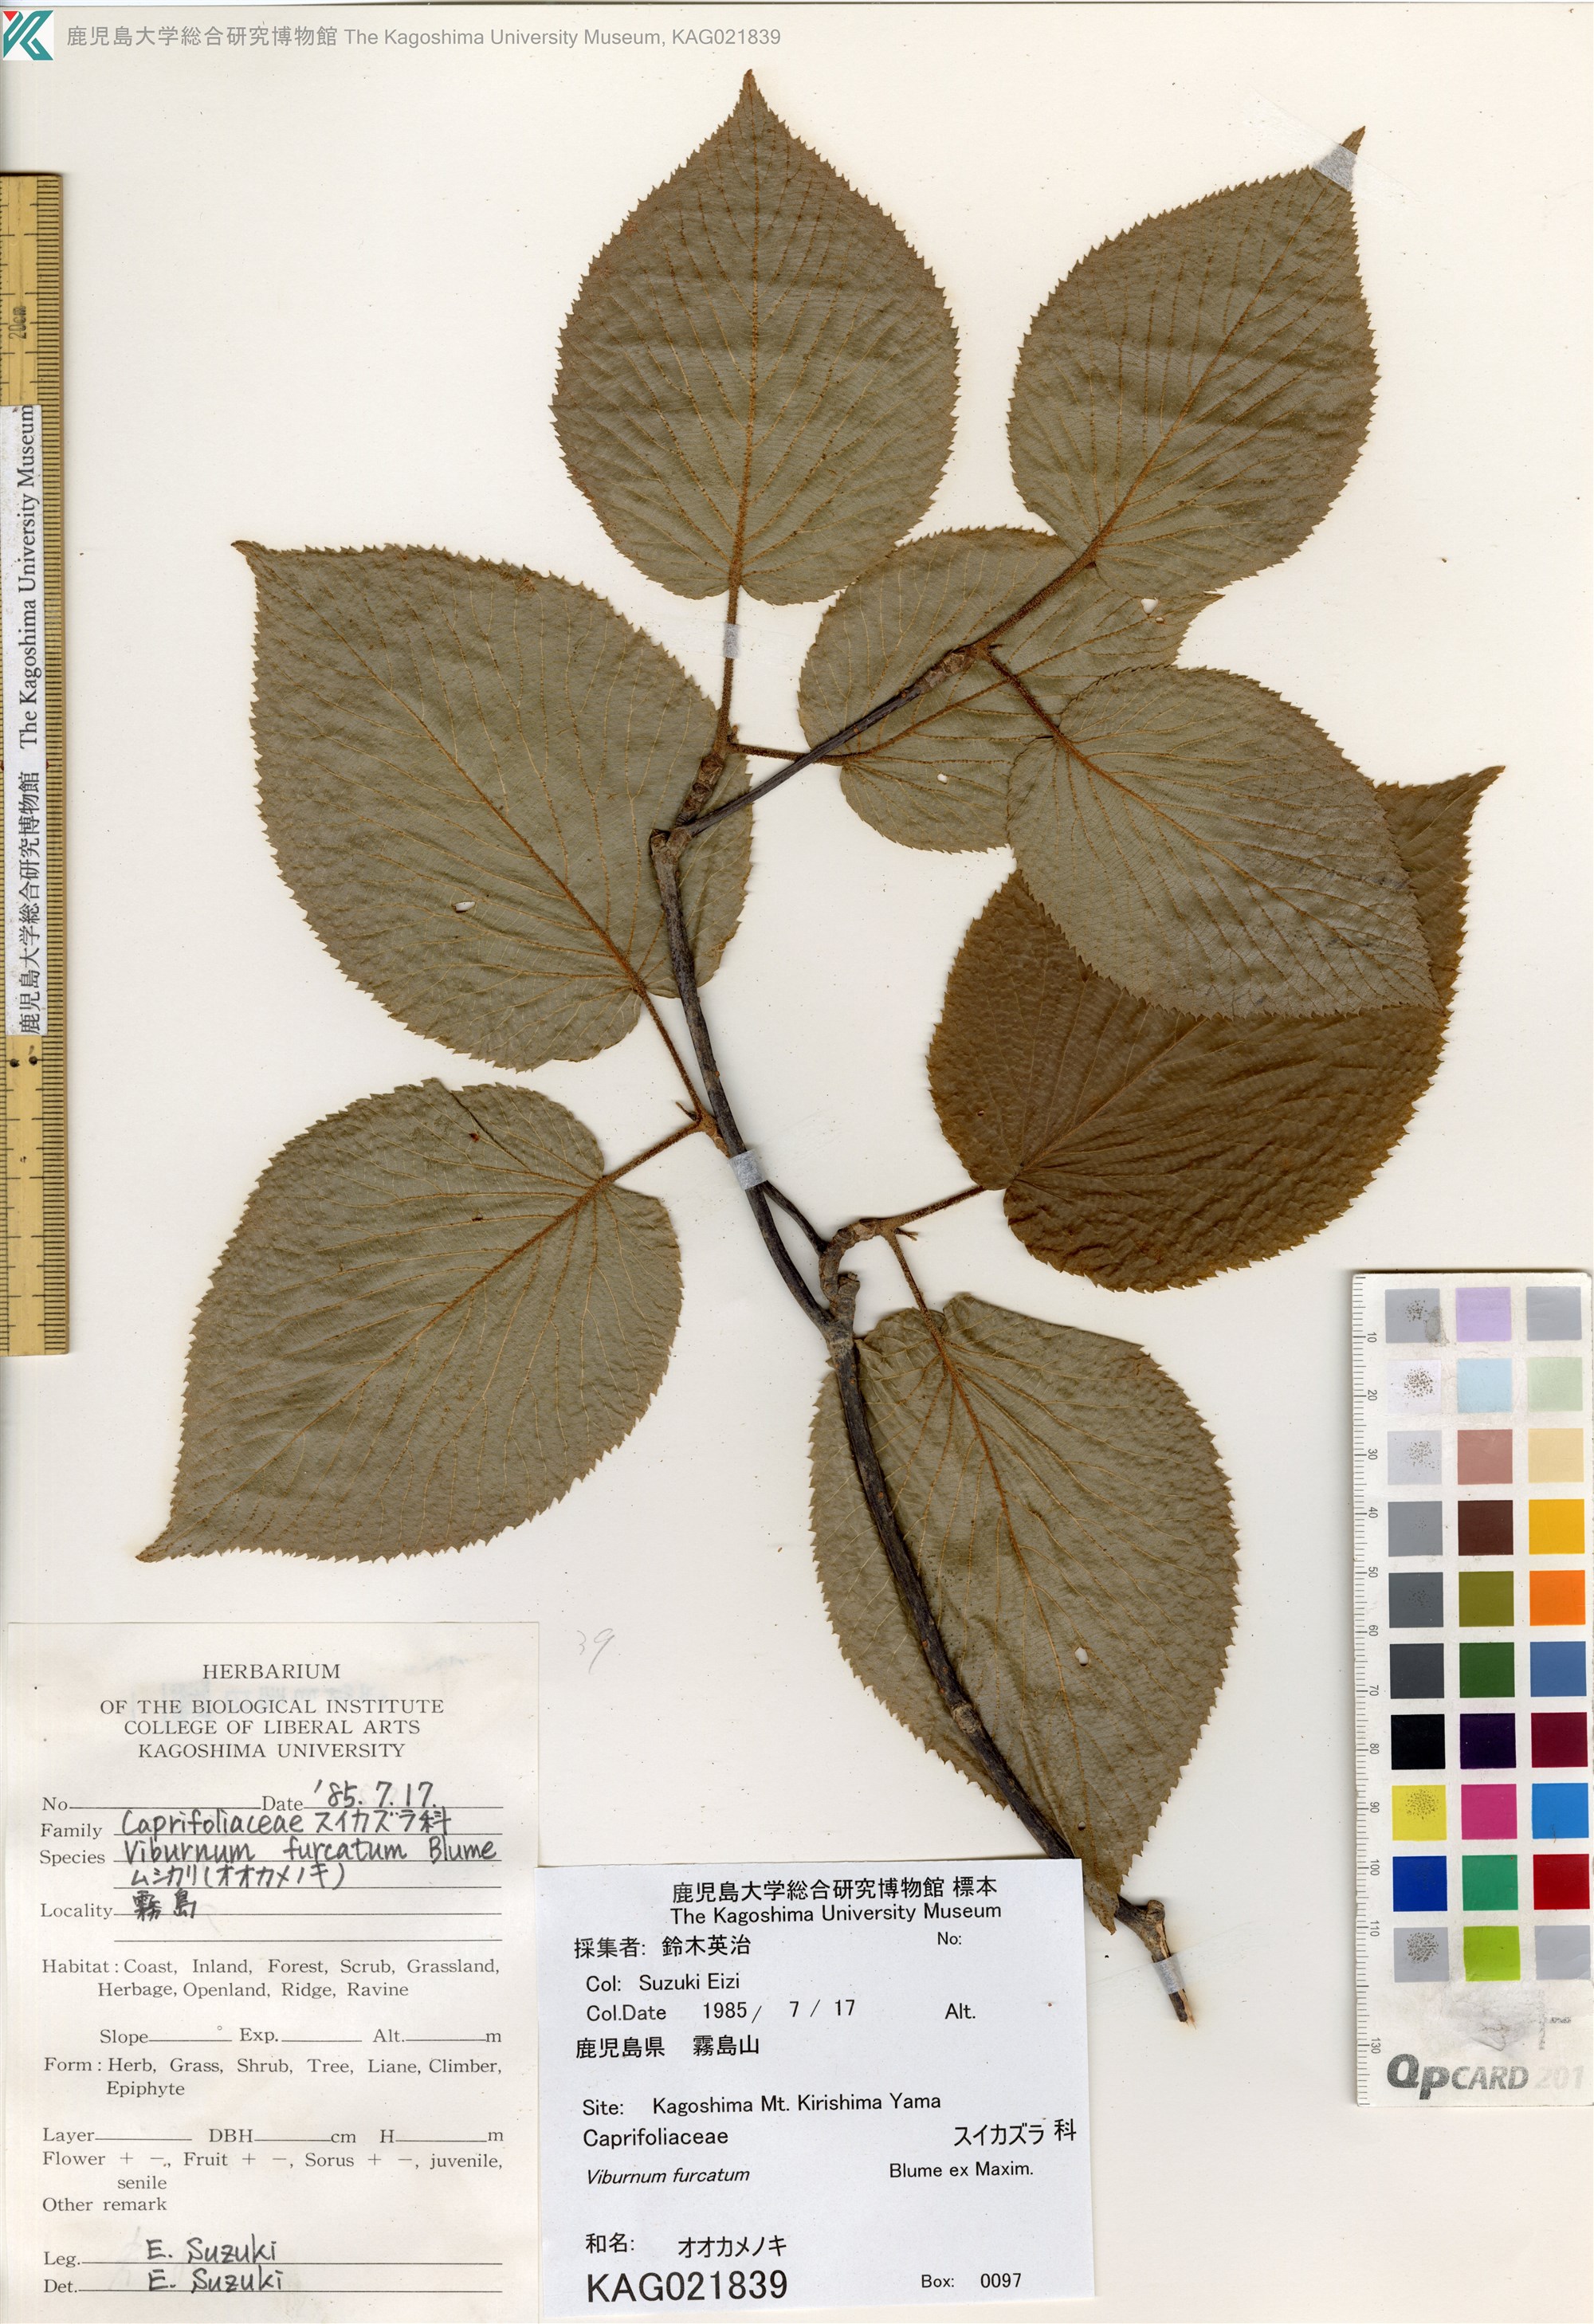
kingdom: Plantae
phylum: Tracheophyta
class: Magnoliopsida
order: Dipsacales
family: Viburnaceae
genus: Viburnum
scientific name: Viburnum furcatum
